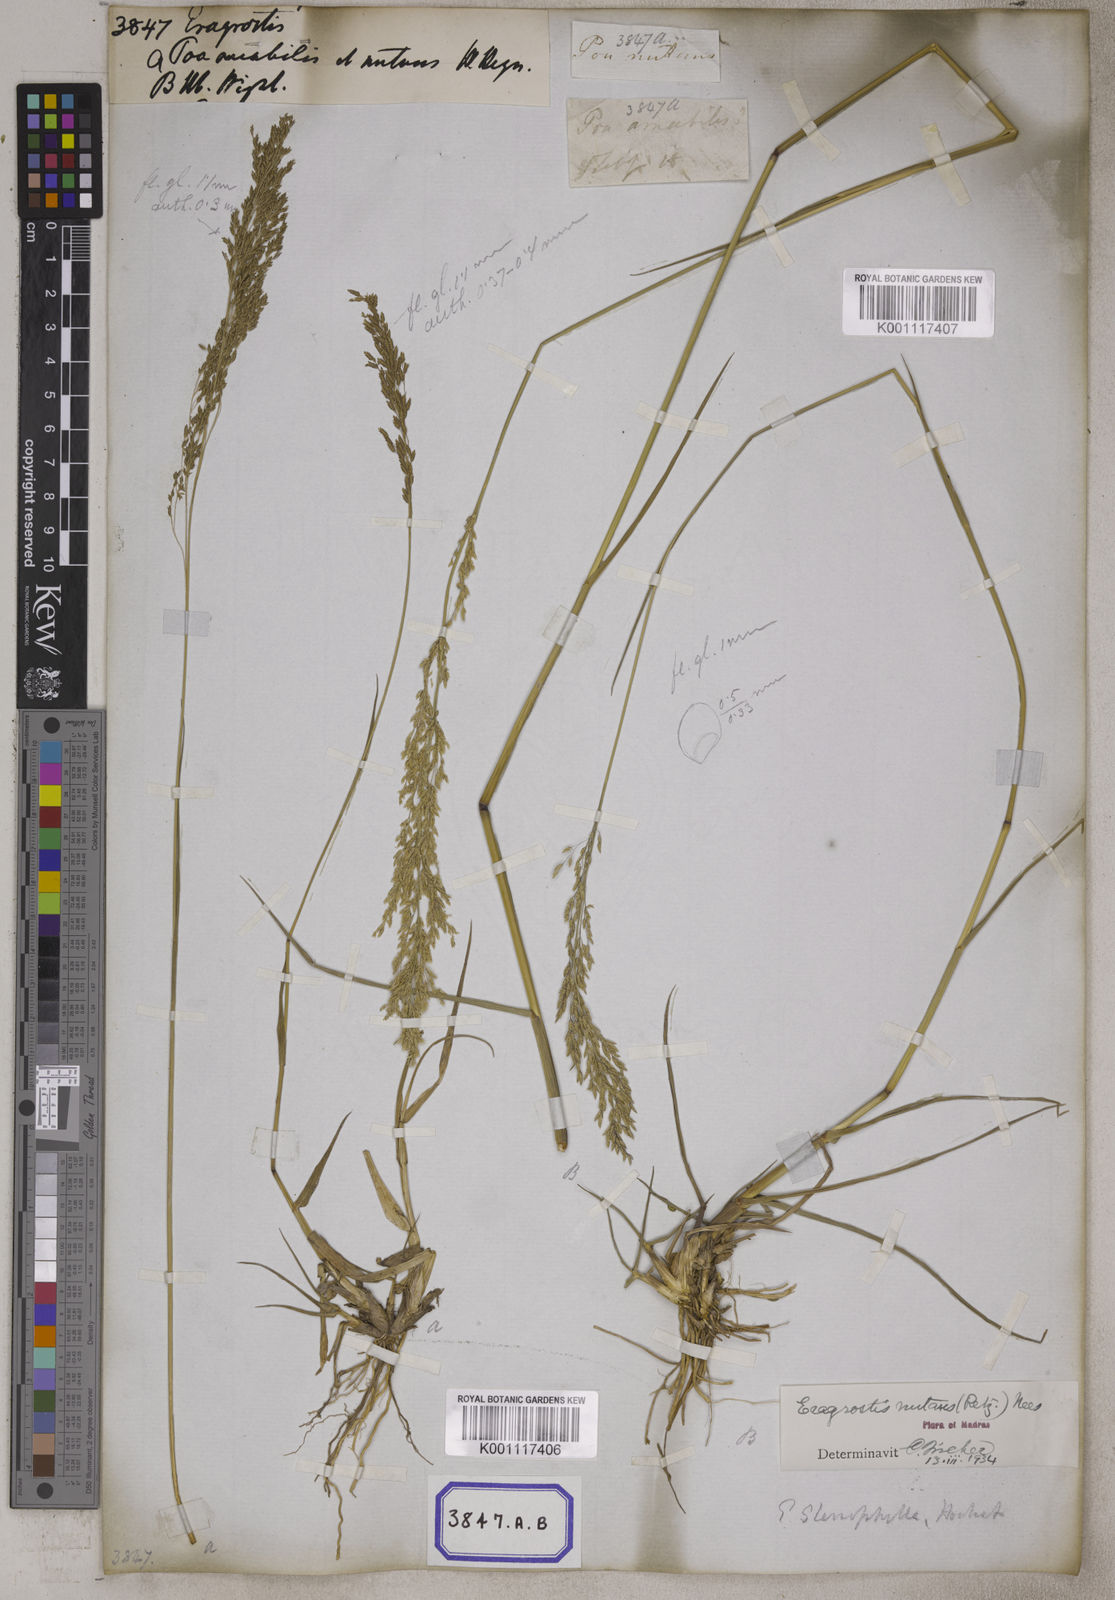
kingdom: Plantae
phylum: Tracheophyta
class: Liliopsida
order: Poales
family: Poaceae
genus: Eragrostis
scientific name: Eragrostis
